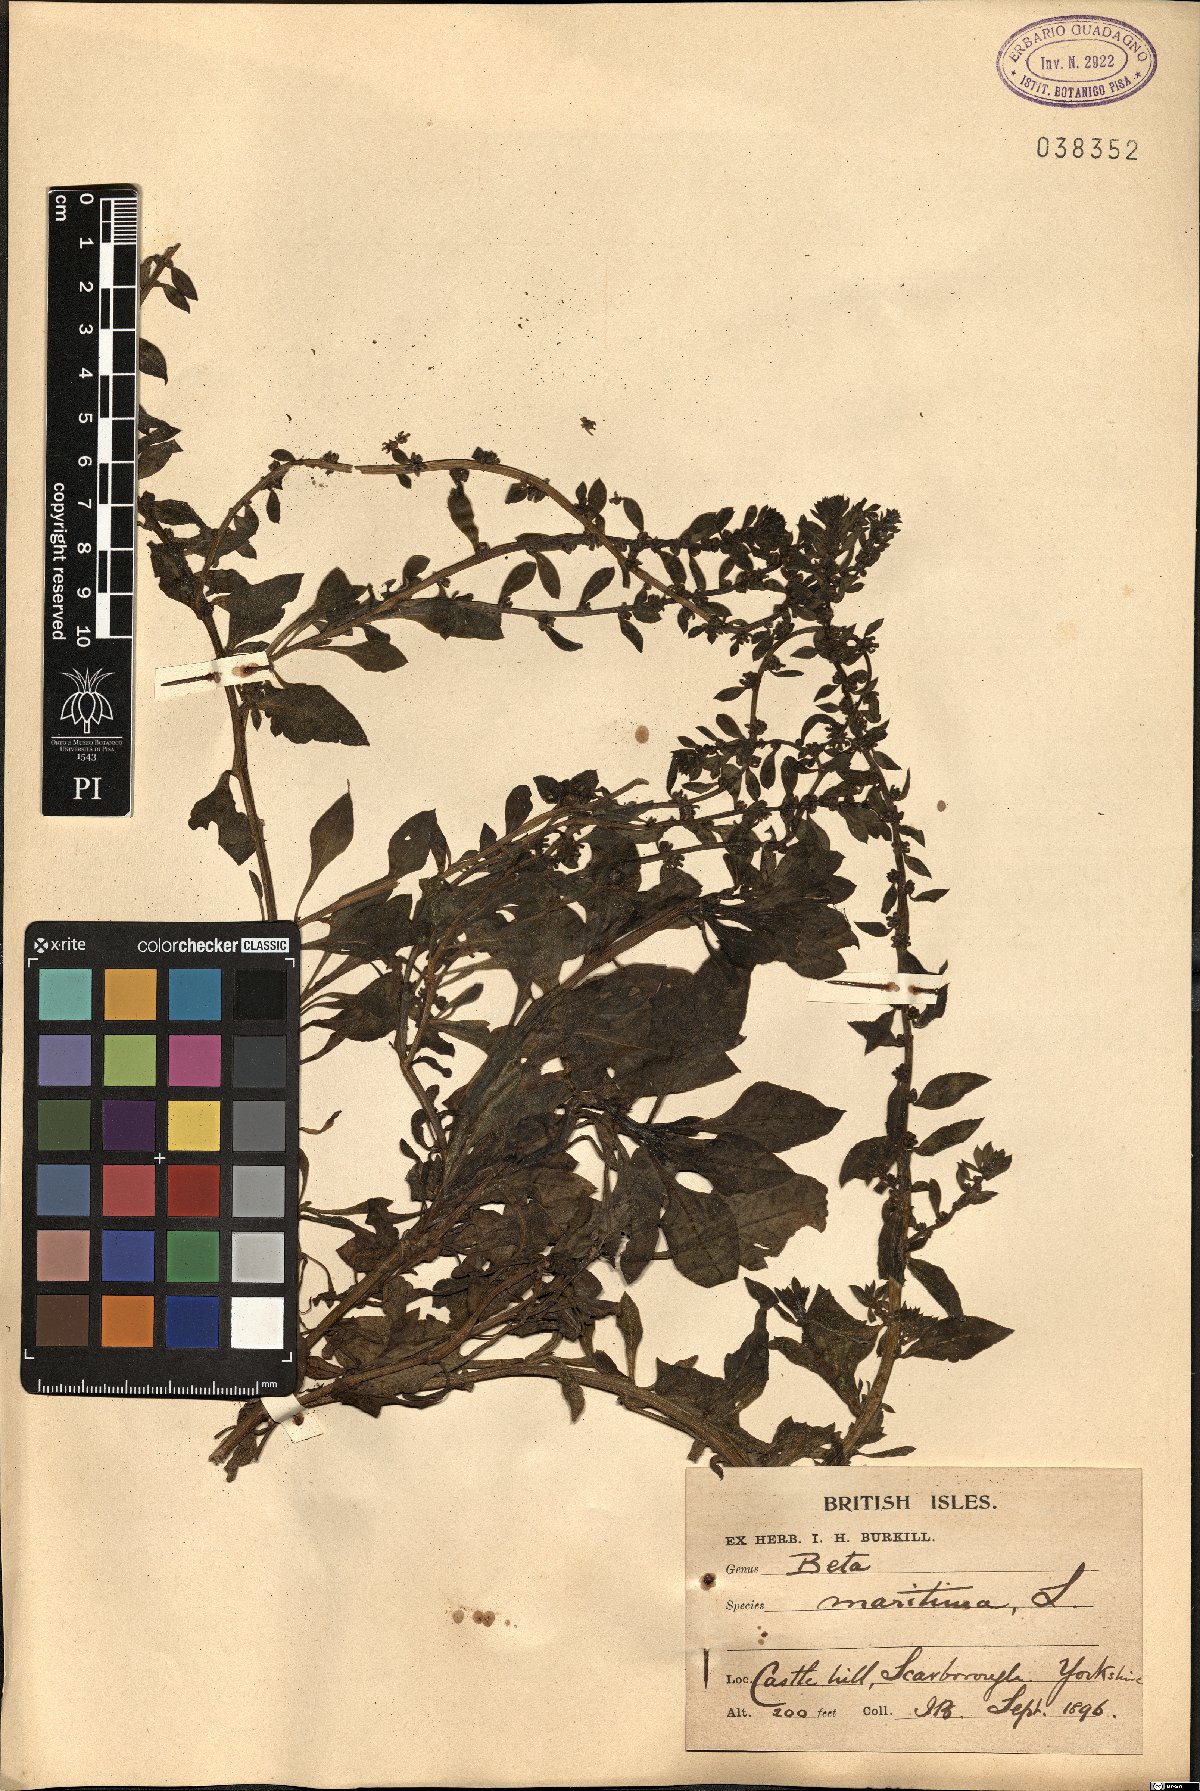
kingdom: Plantae
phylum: Tracheophyta
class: Magnoliopsida
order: Caryophyllales
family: Amaranthaceae
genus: Beta
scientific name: Beta maritima
